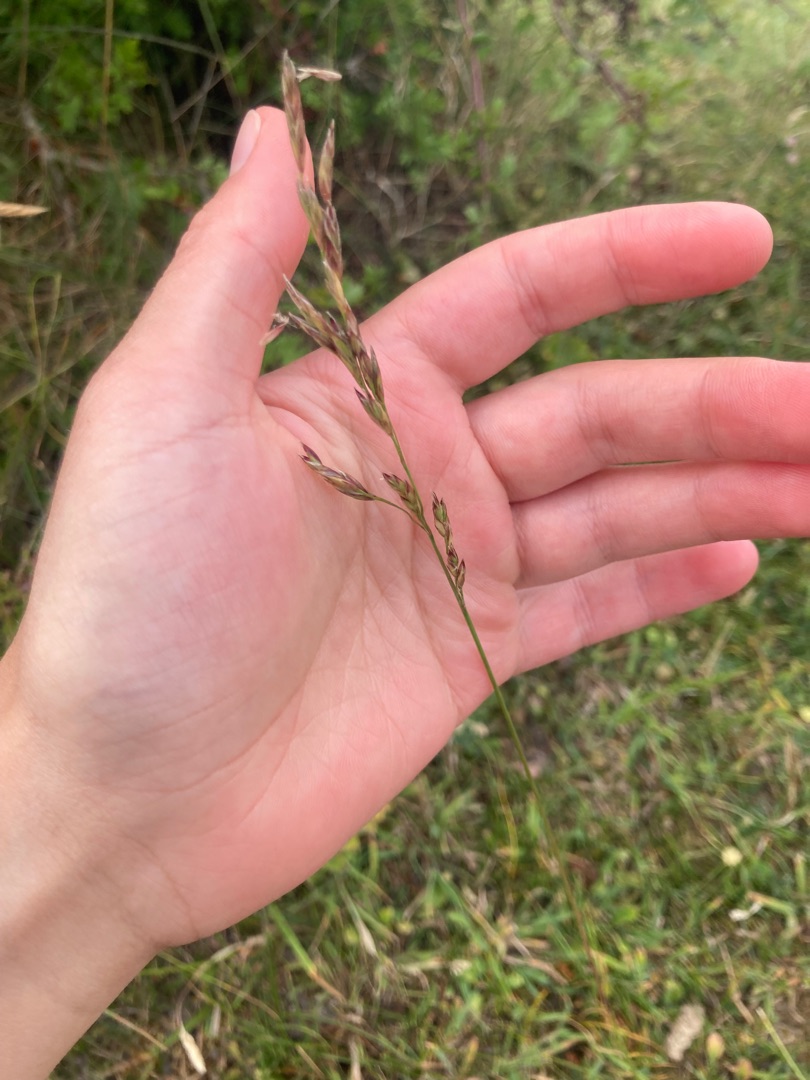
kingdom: Plantae
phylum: Tracheophyta
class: Liliopsida
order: Poales
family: Poaceae
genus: Lolium
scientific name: Lolium pratense
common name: Eng-svingel
